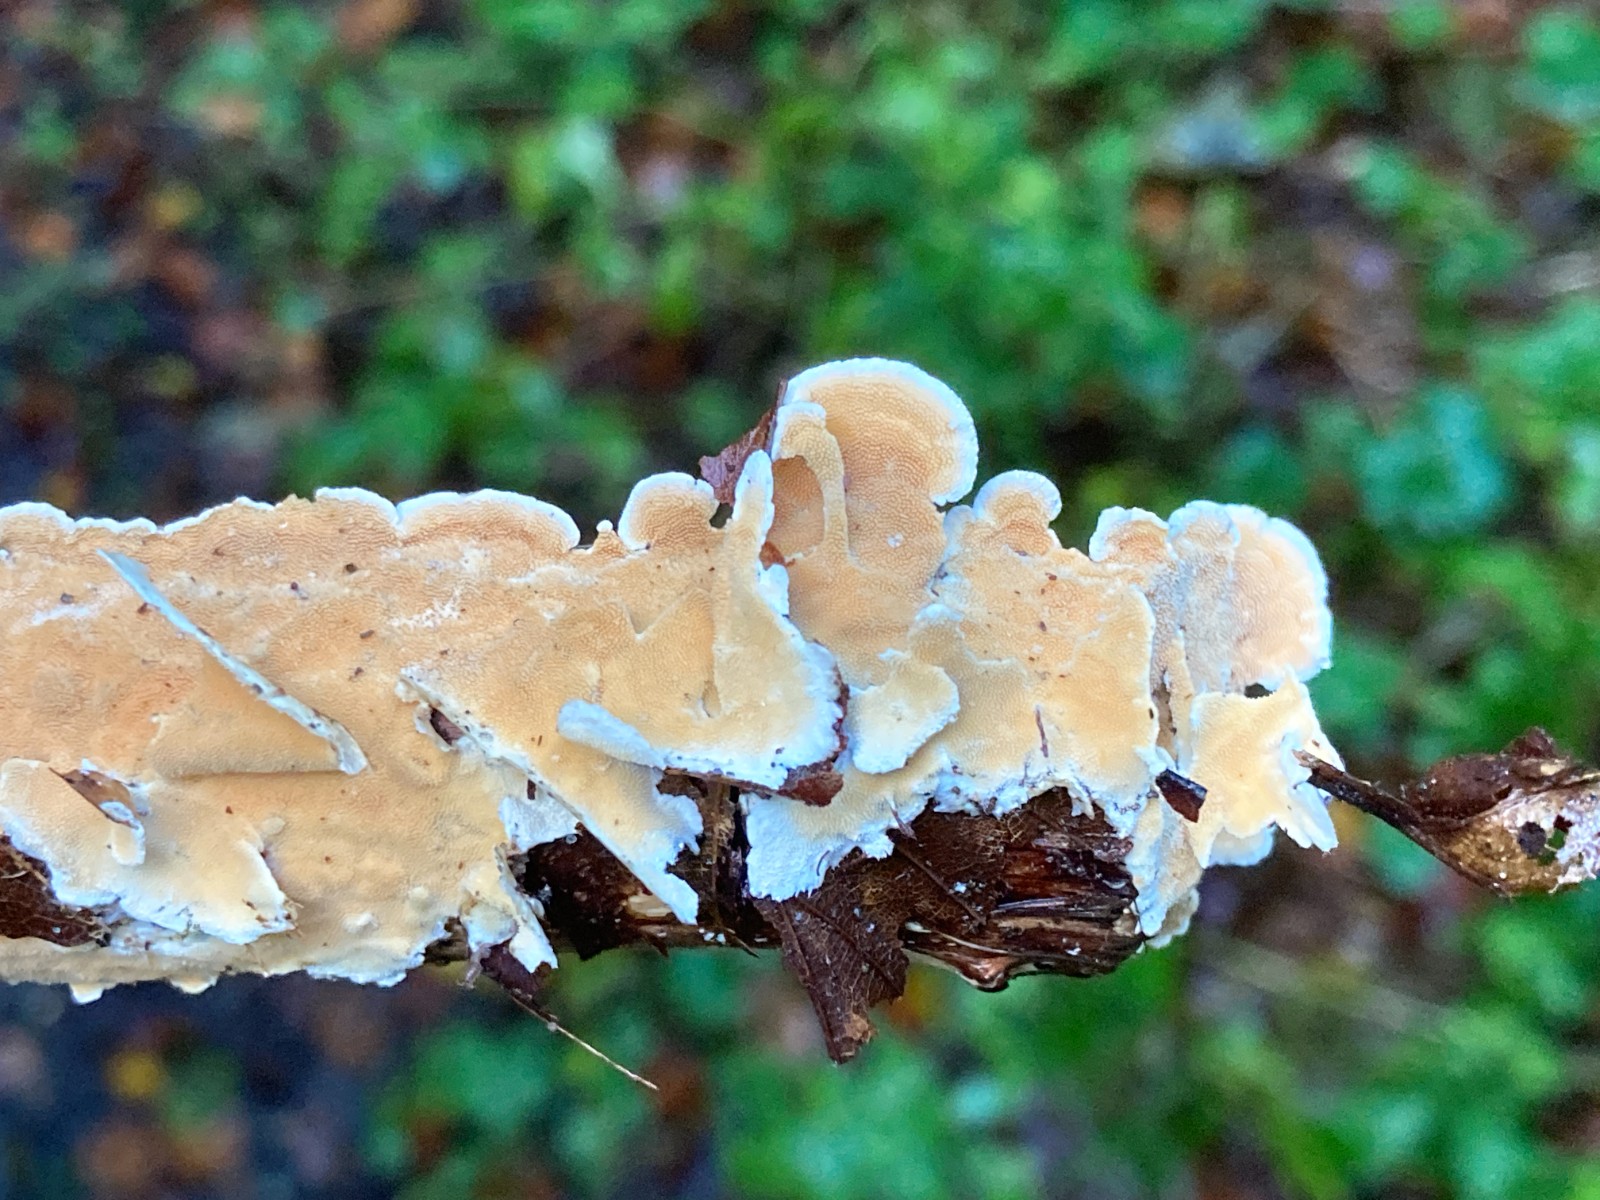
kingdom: Fungi
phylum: Basidiomycota
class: Agaricomycetes
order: Polyporales
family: Steccherinaceae
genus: Steccherinum
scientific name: Steccherinum ochraceum
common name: almindelig skønpig
